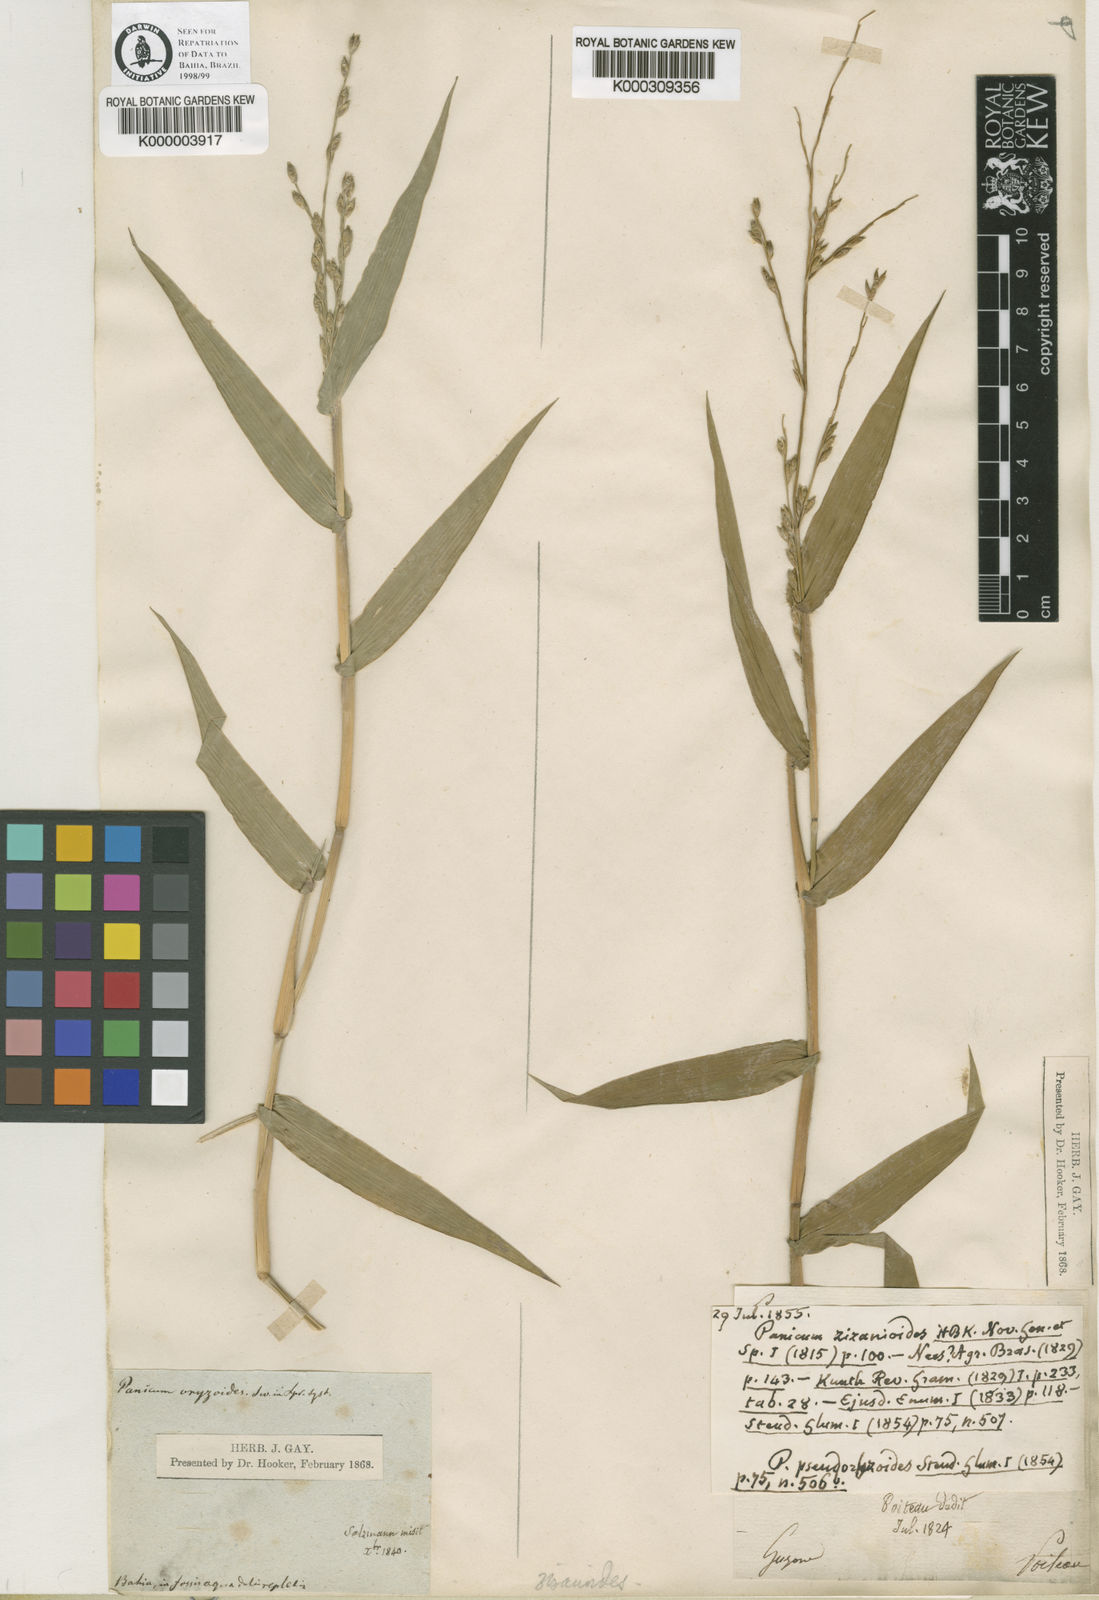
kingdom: Plantae
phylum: Tracheophyta
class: Liliopsida
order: Poales
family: Poaceae
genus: Acroceras
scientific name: Acroceras zizanioides
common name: Oat grass
